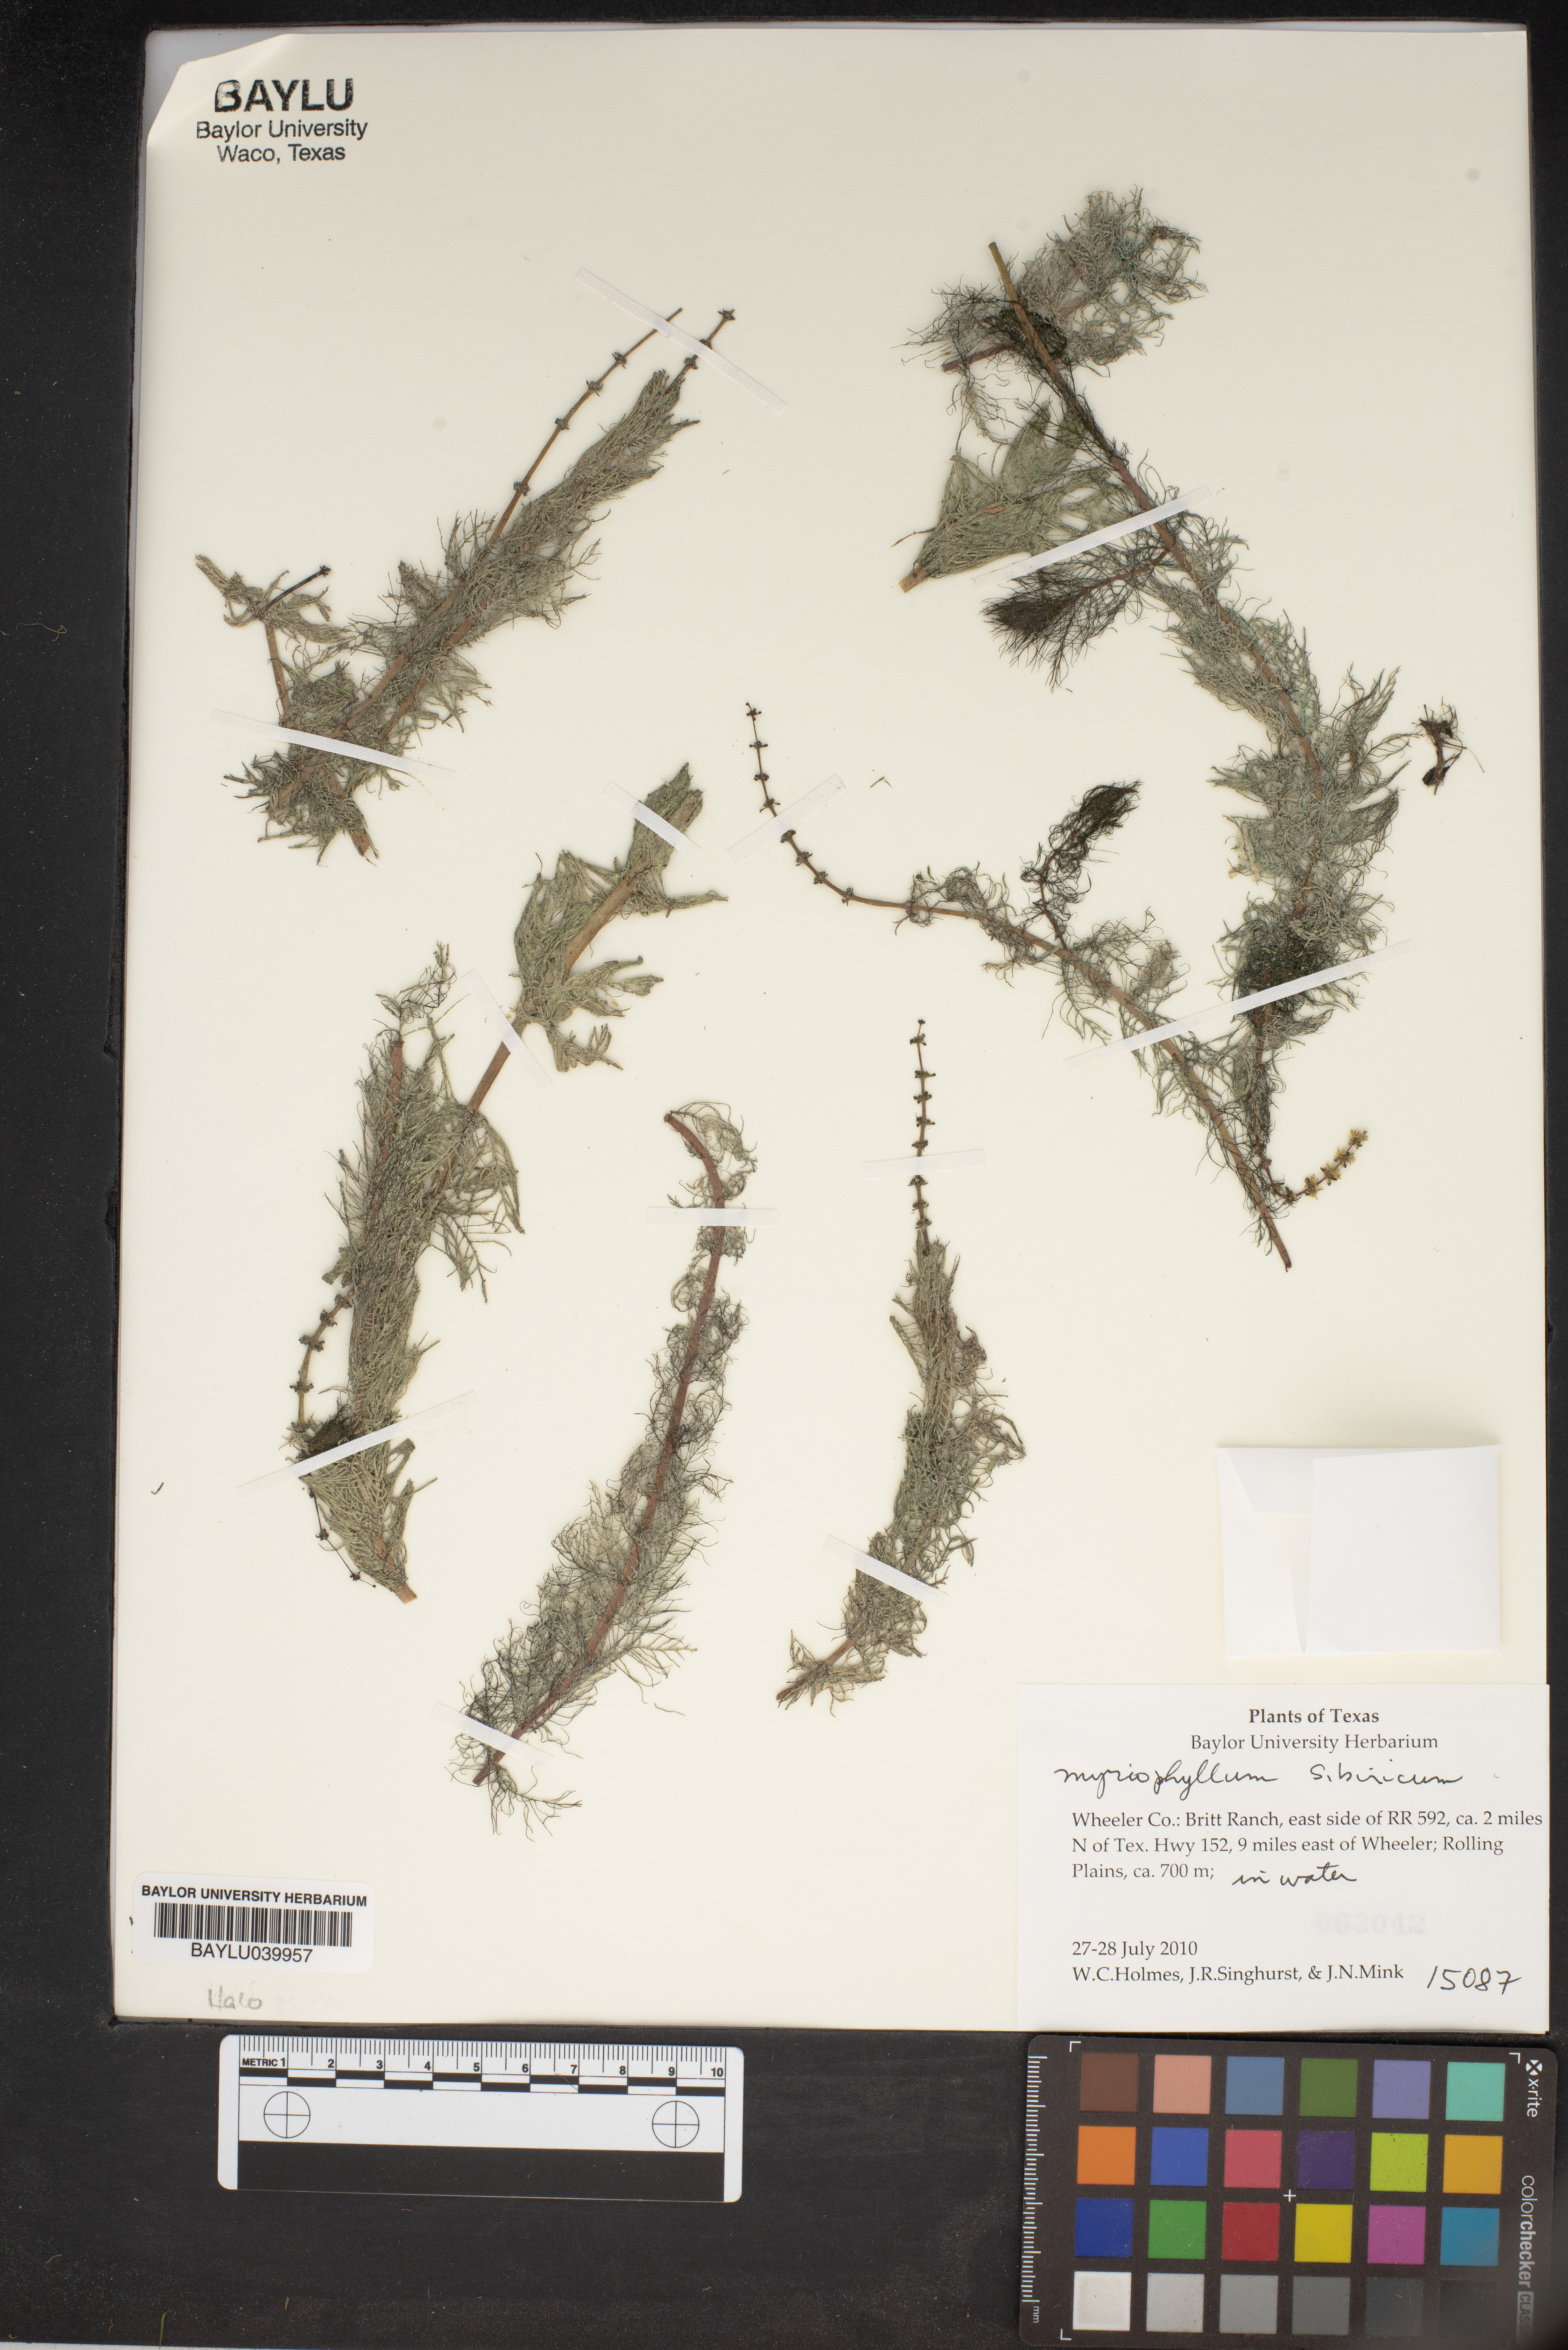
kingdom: Plantae
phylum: Tracheophyta
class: Magnoliopsida
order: Saxifragales
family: Haloragaceae
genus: Myriophyllum
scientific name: Myriophyllum sibiricum
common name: Siberian water-milfoil
